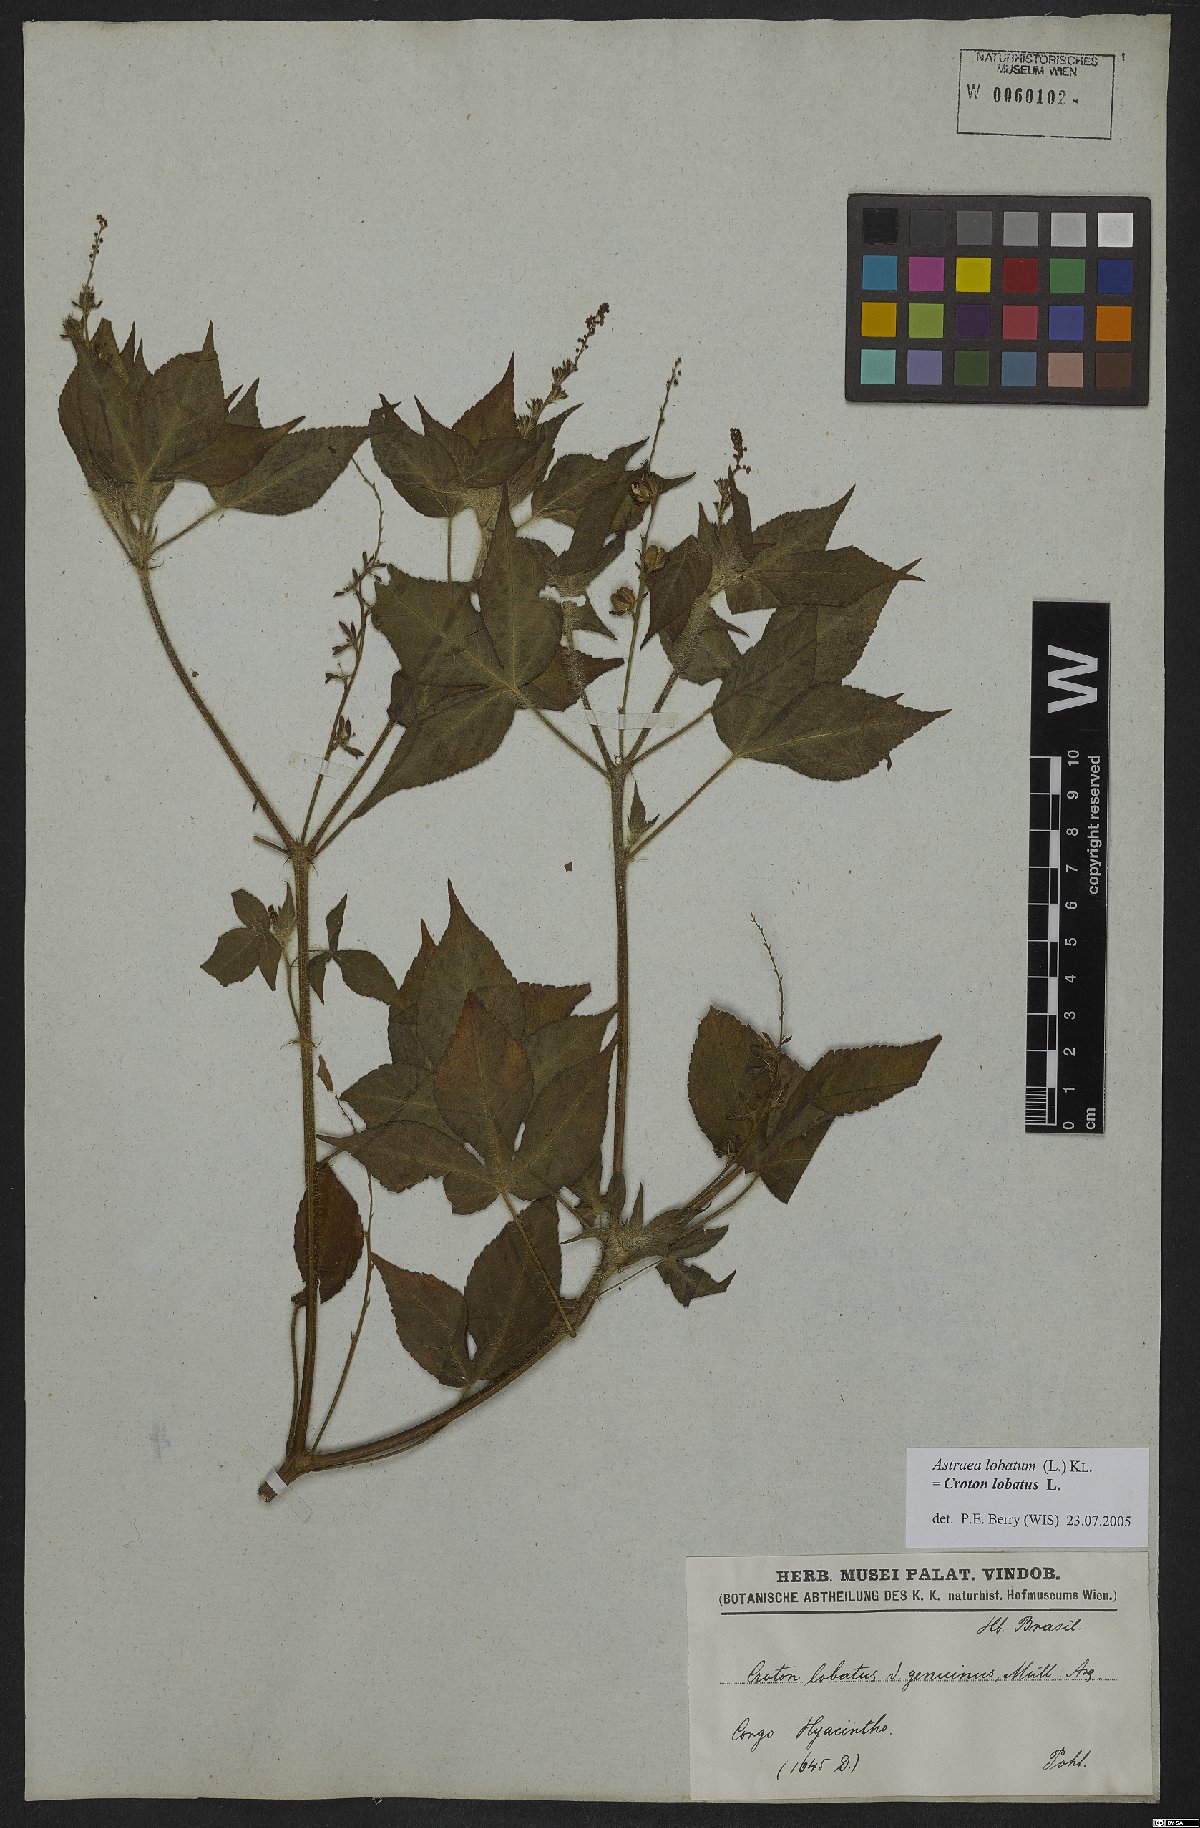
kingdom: Plantae
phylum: Tracheophyta
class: Magnoliopsida
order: Malpighiales
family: Euphorbiaceae
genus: Croton
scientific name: Croton lobatus
